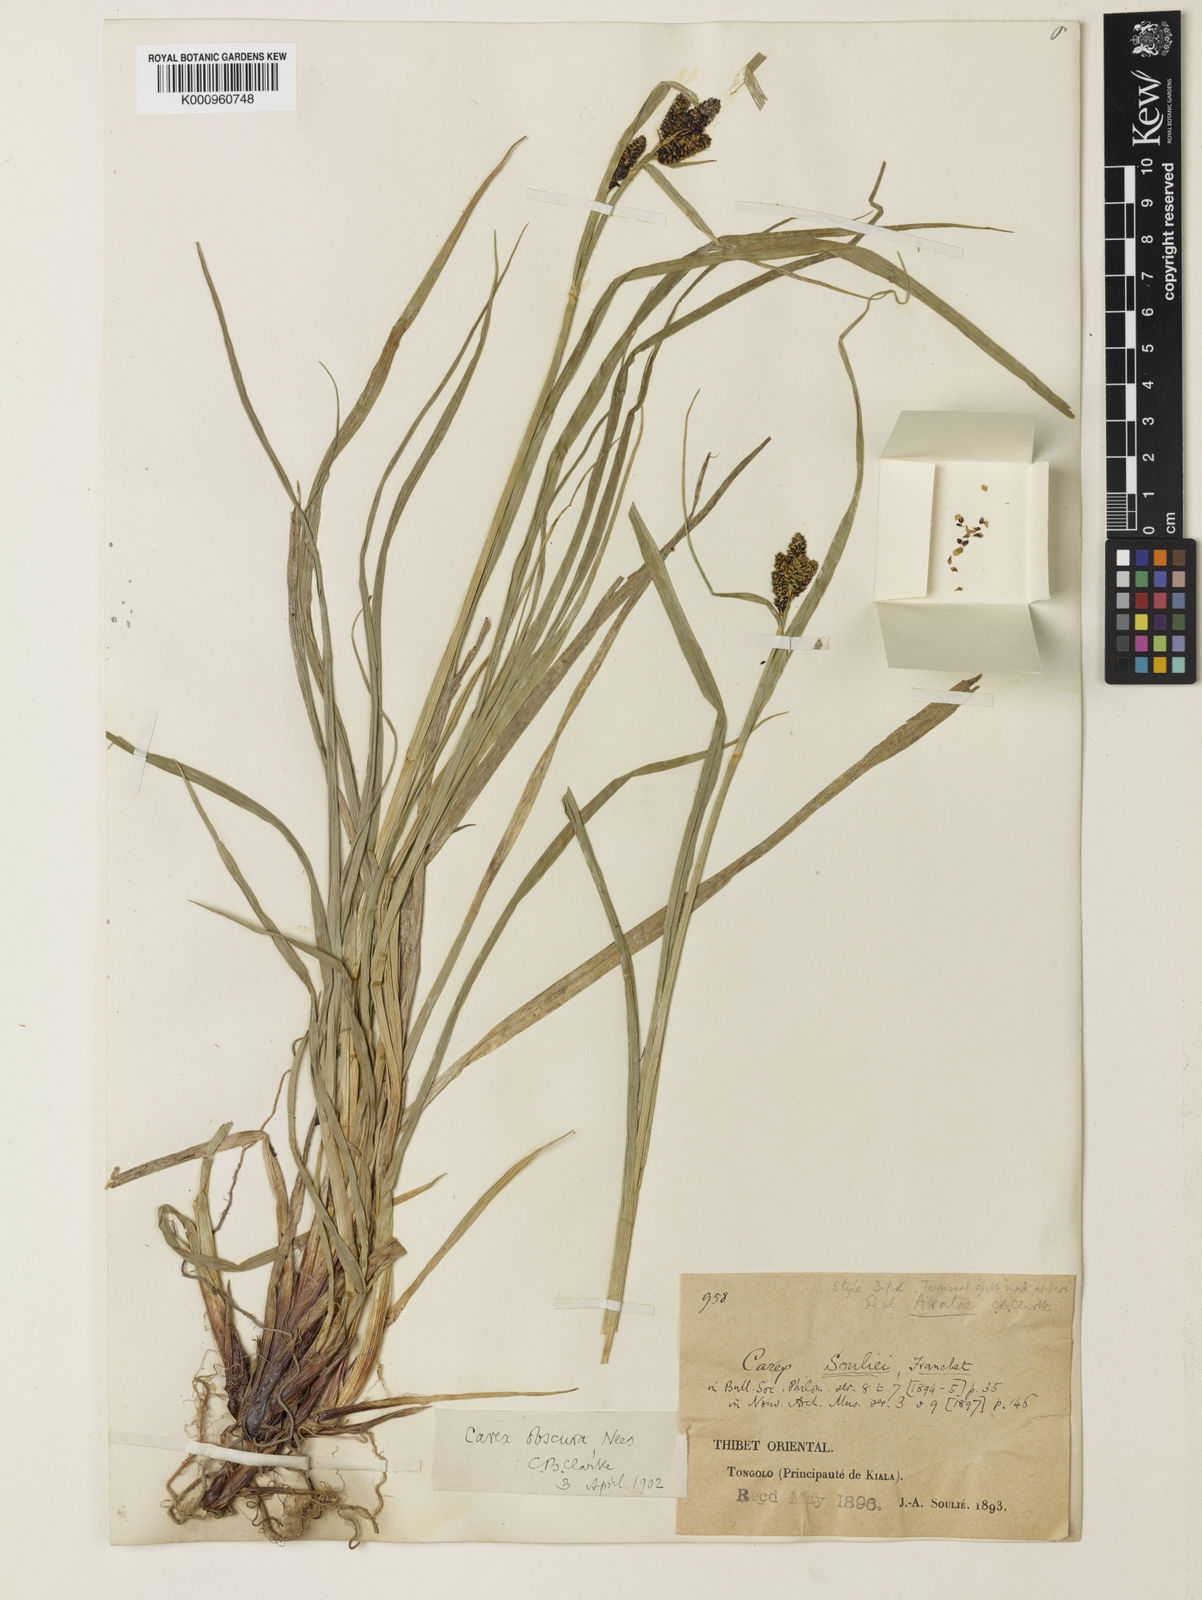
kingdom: Plantae
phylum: Tracheophyta
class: Liliopsida
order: Poales
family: Cyperaceae
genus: Carex
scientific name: Carex obscura
